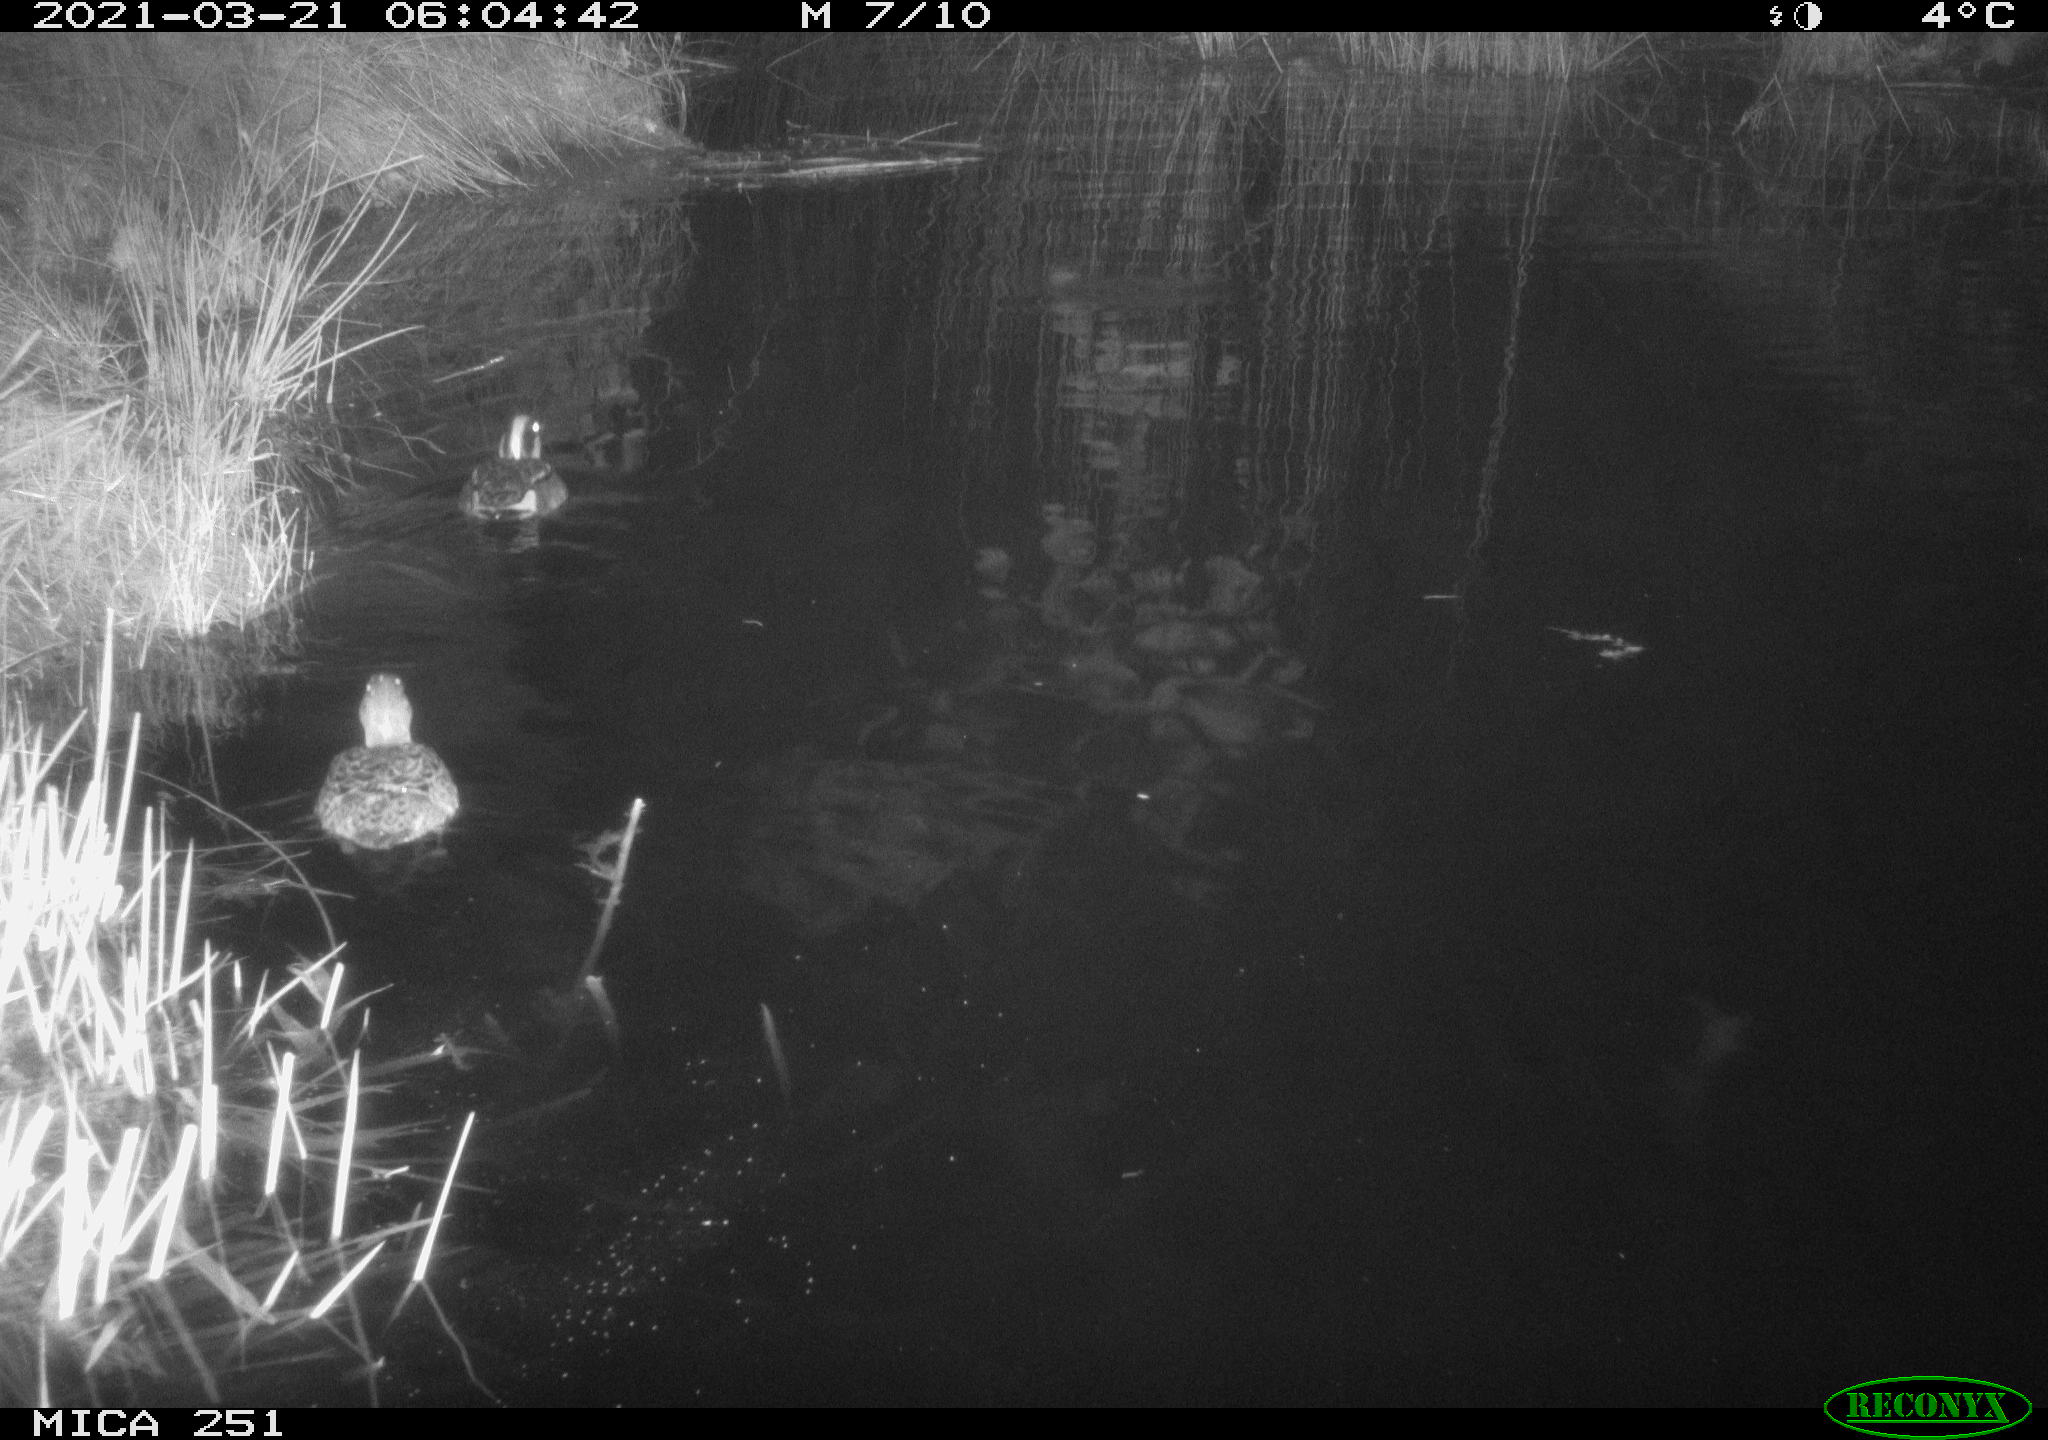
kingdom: Animalia
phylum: Chordata
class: Aves
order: Anseriformes
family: Anatidae
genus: Anas
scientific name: Anas crecca
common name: Eurasian teal
